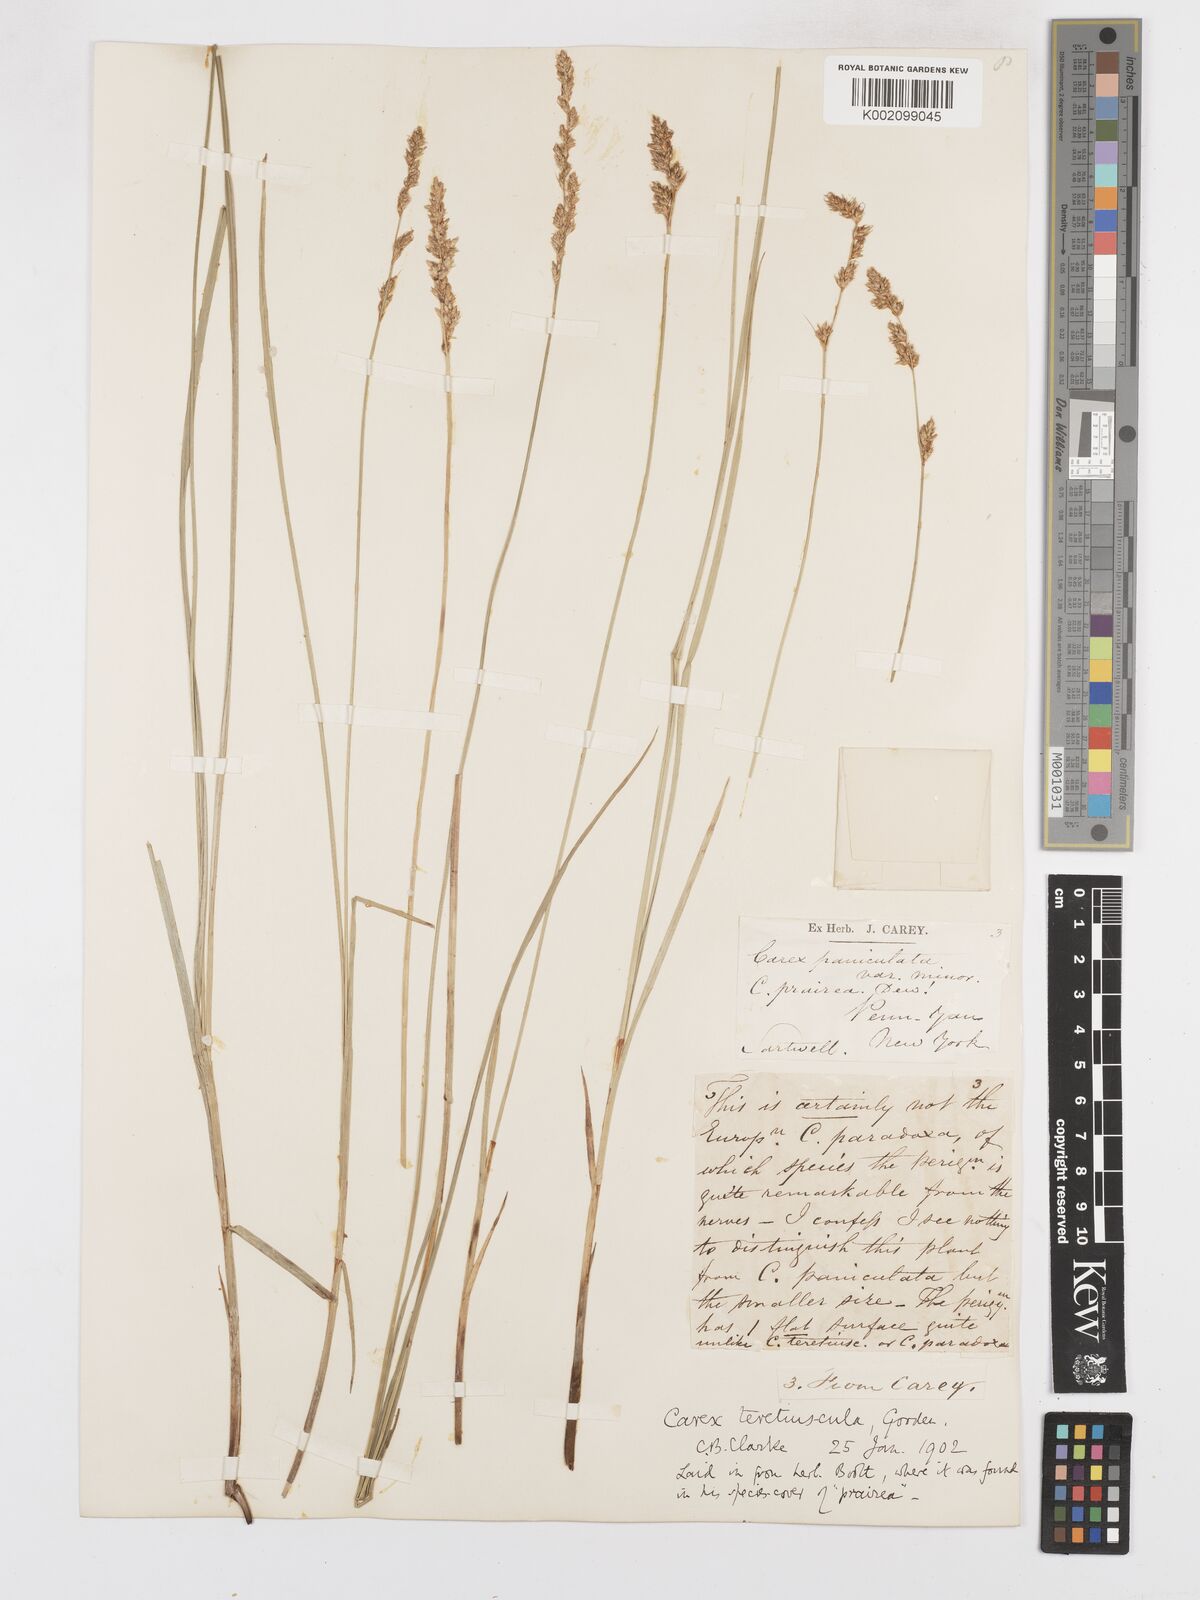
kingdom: Plantae
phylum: Tracheophyta
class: Liliopsida
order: Poales
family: Cyperaceae
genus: Carex
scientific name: Carex diandra
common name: Lesser tussock-sedge
